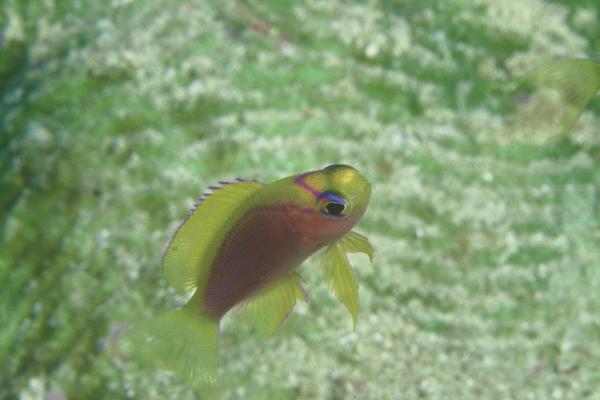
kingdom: Animalia
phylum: Chordata
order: Perciformes
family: Serranidae
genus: Pseudanthias
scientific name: Pseudanthias ventralis
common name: Longfin anthias
